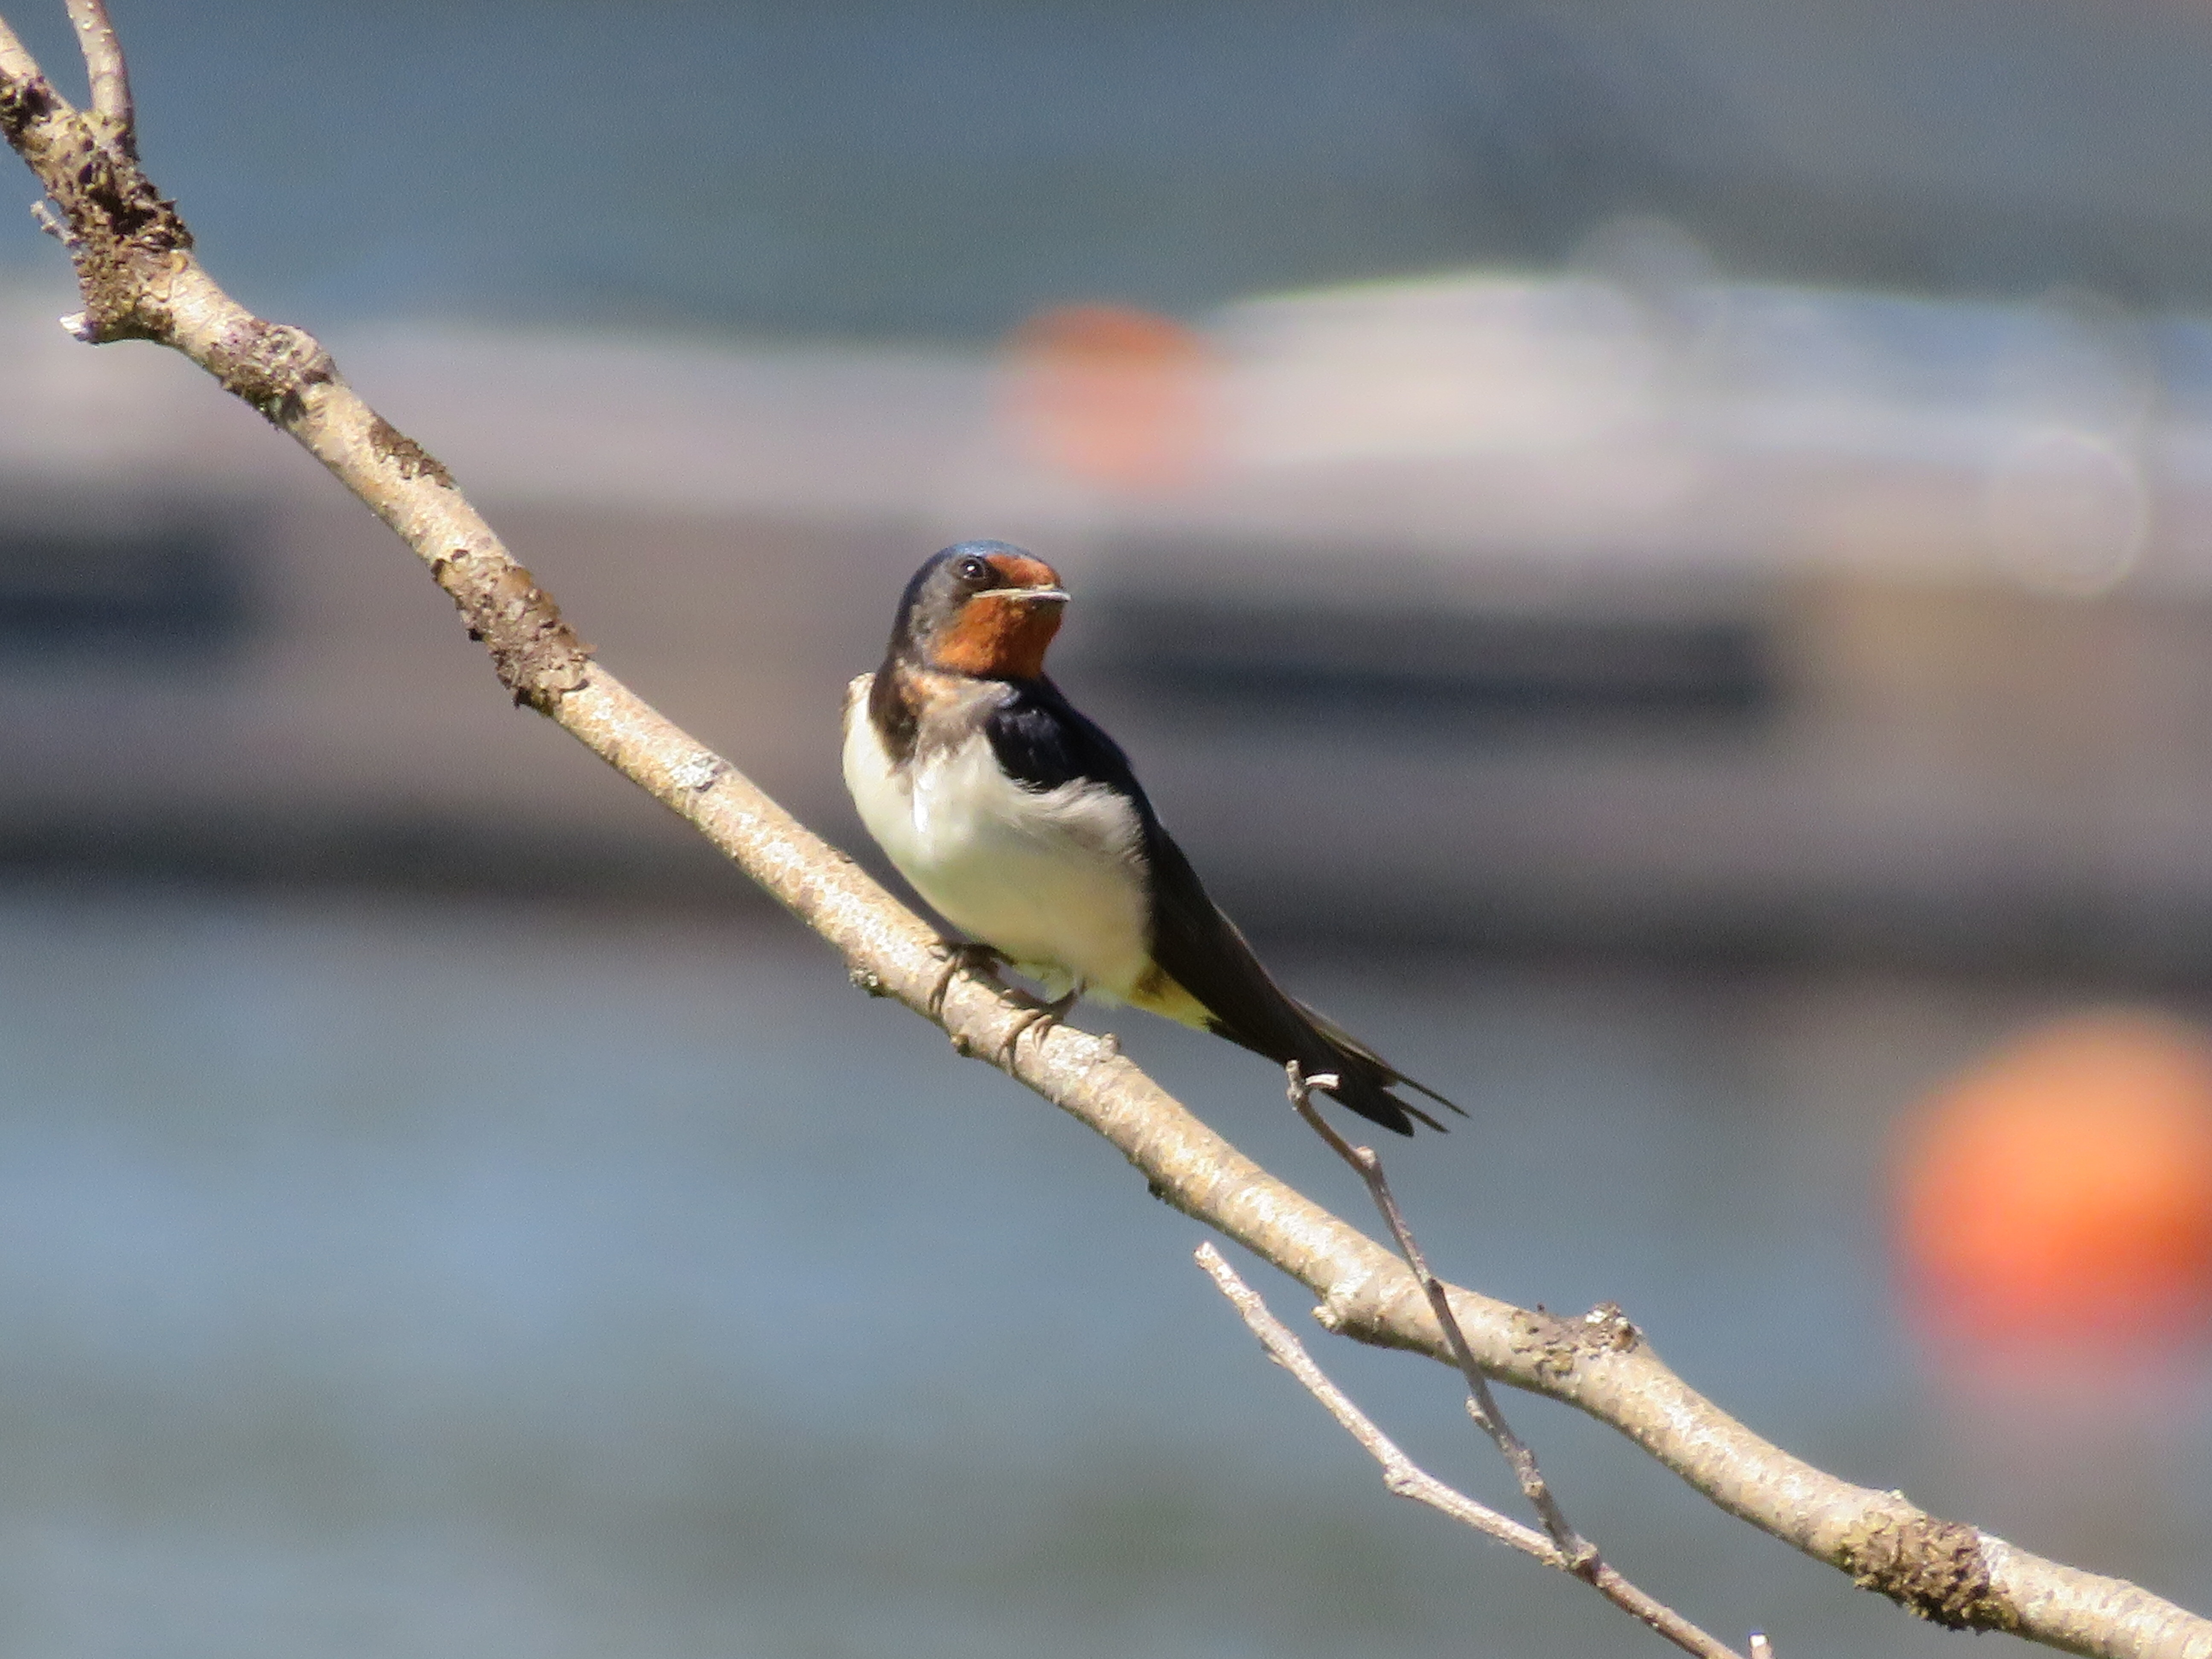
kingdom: Animalia
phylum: Chordata
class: Aves
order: Passeriformes
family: Hirundinidae
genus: Hirundo
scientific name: Hirundo rustica
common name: Barn swallow
